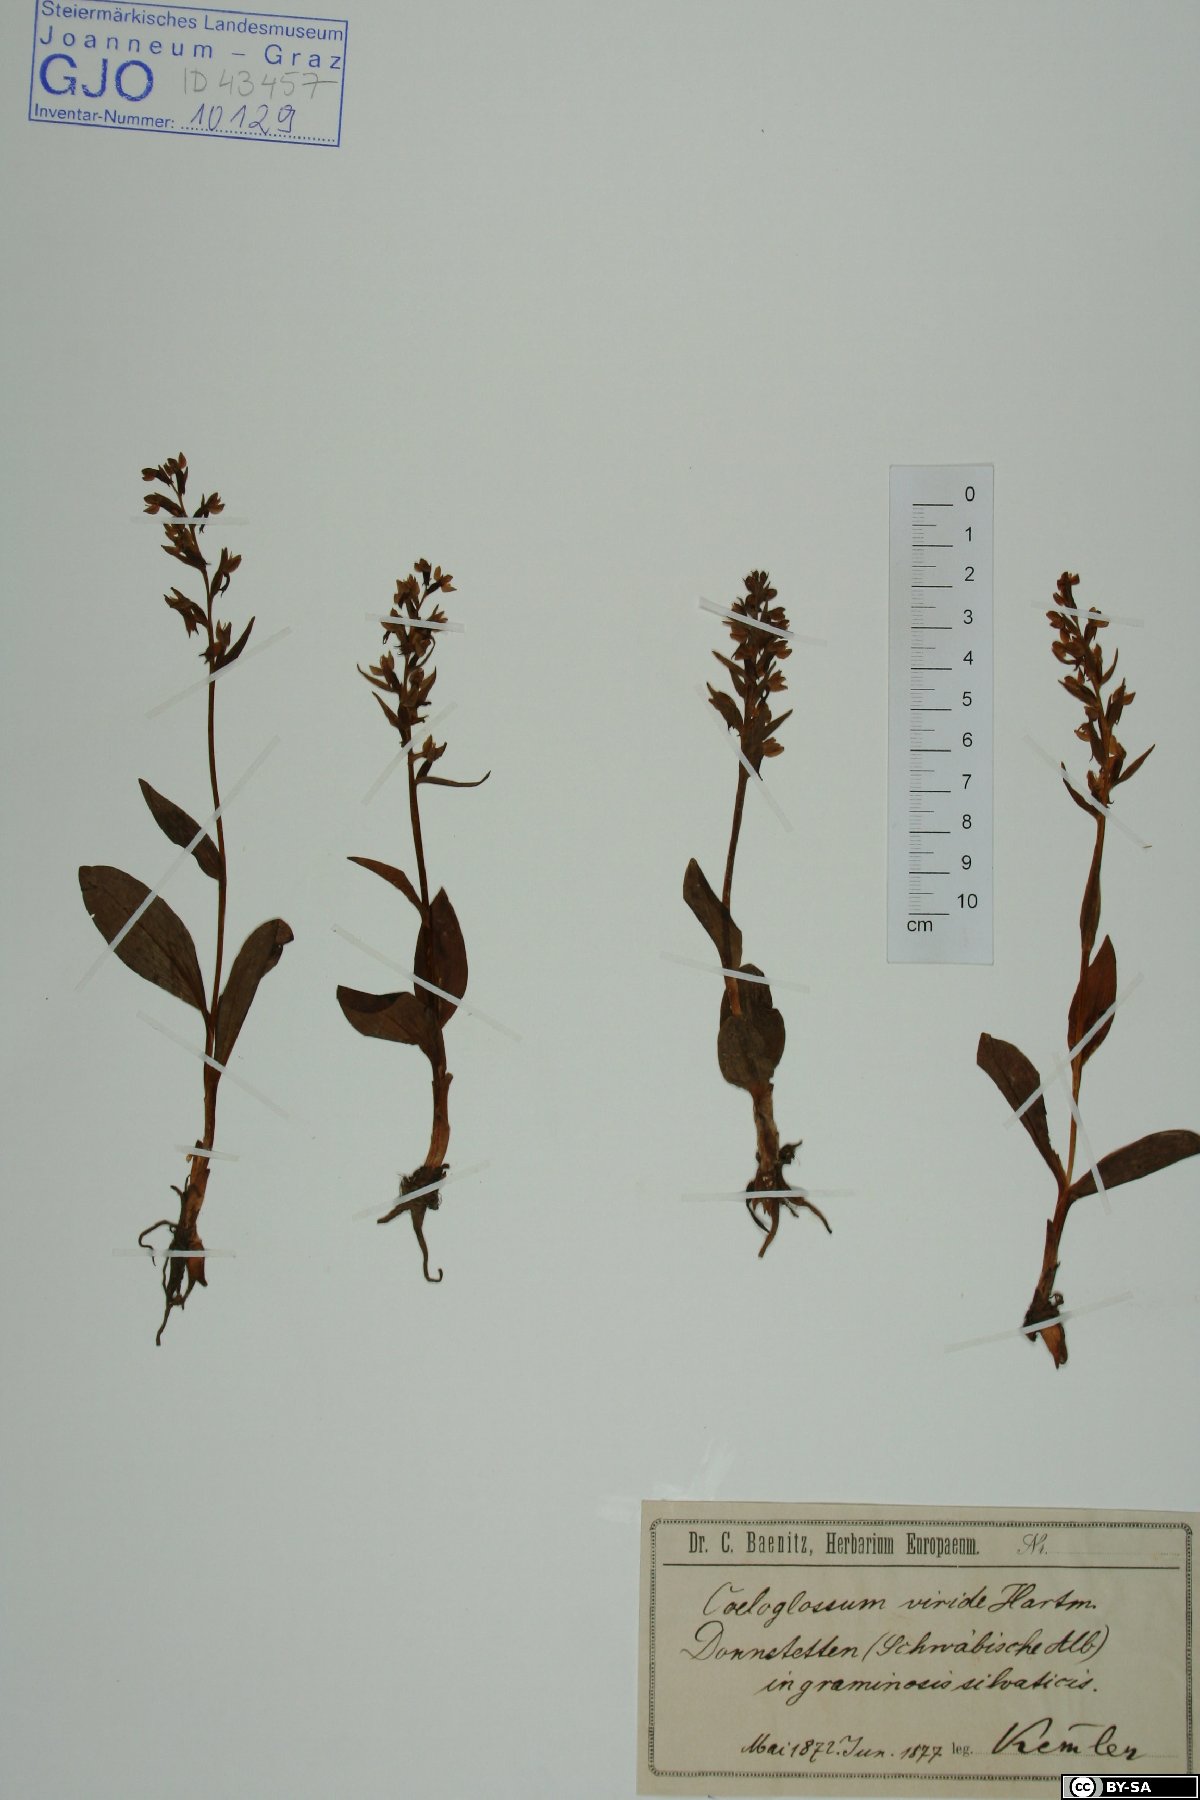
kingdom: Plantae
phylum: Tracheophyta
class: Liliopsida
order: Asparagales
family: Orchidaceae
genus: Dactylorhiza
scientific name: Dactylorhiza viridis
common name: Longbract frog orchid
